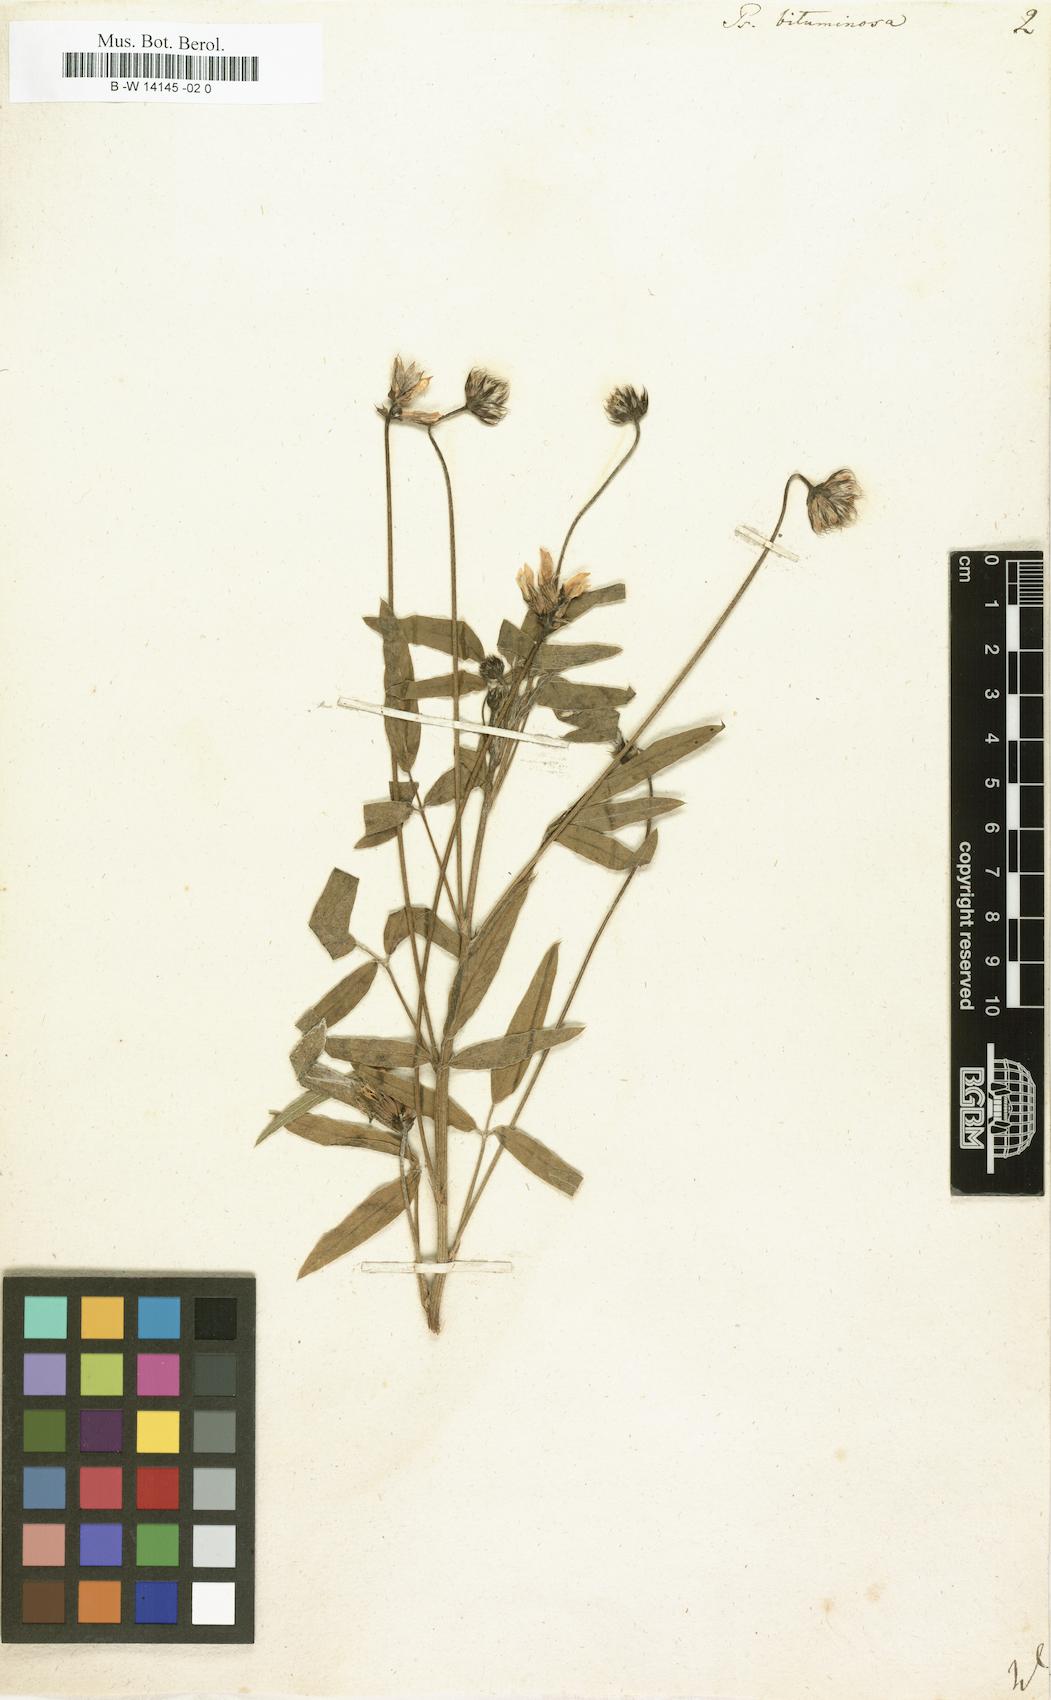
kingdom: Plantae
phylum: Tracheophyta
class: Magnoliopsida
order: Fabales
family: Fabaceae
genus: Bituminaria
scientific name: Bituminaria bituminosa
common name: Arabian pea
